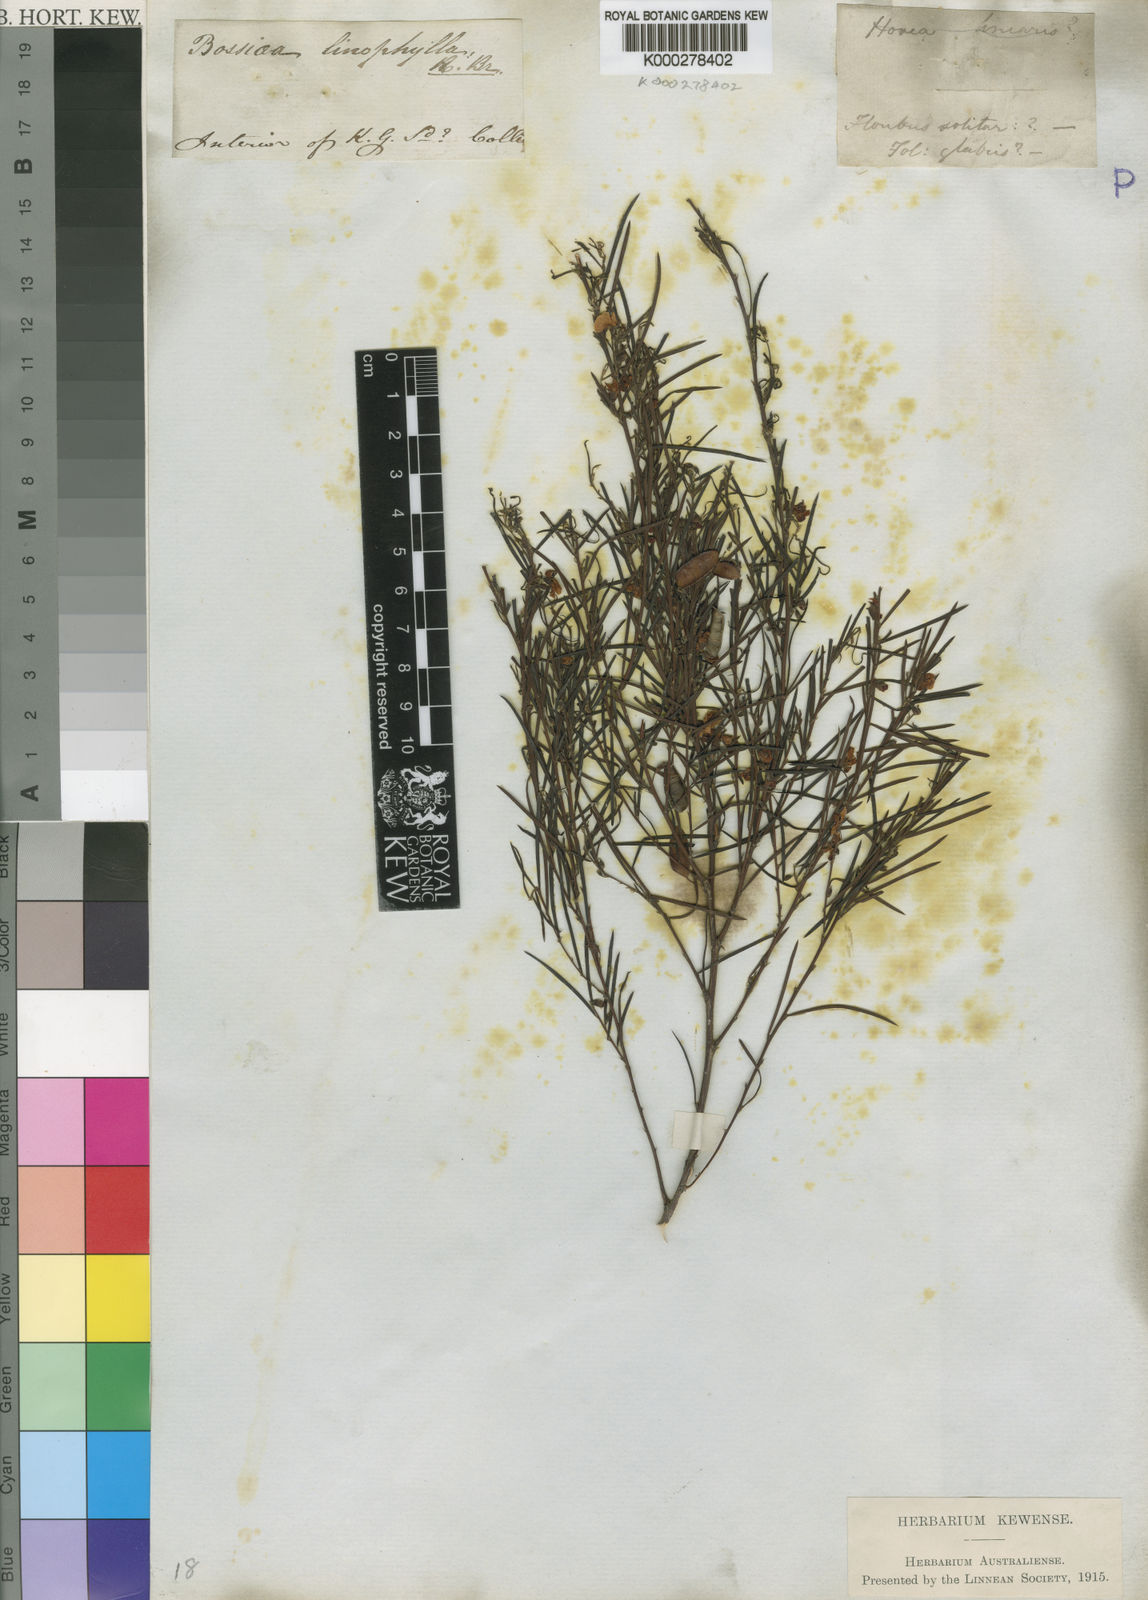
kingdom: Plantae
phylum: Tracheophyta
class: Magnoliopsida
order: Fabales
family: Fabaceae
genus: Bossiaea
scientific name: Bossiaea linophylla
